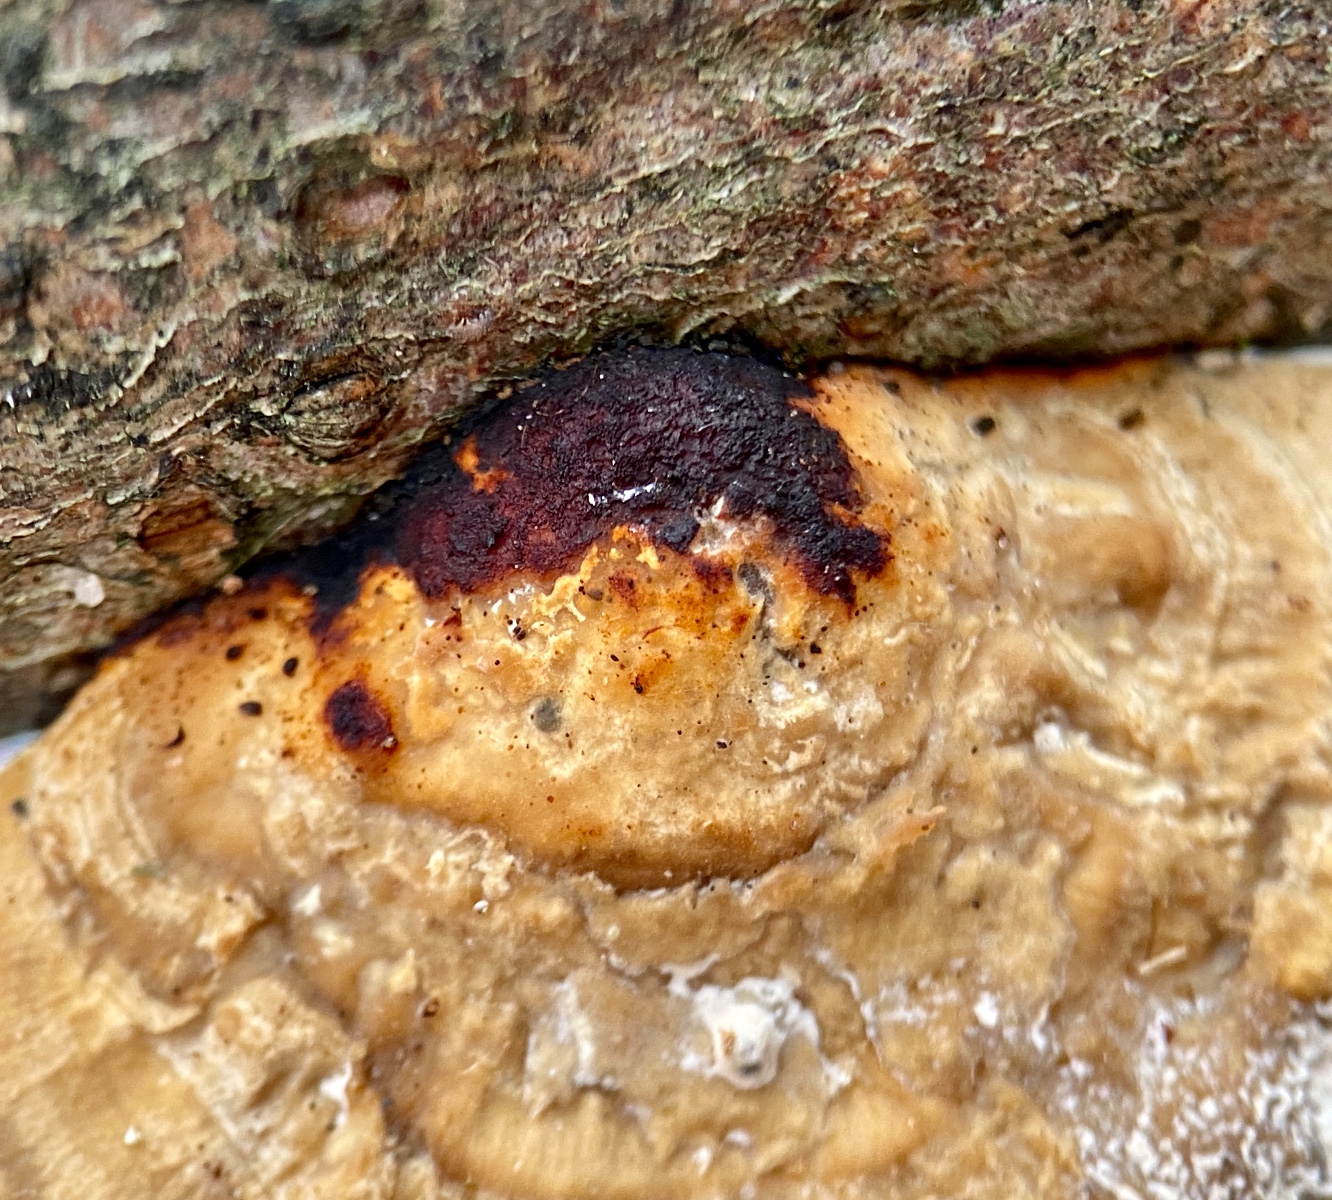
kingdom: Fungi
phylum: Basidiomycota
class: Agaricomycetes
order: Polyporales
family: Polyporaceae
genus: Daedaleopsis
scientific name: Daedaleopsis confragosa
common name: rødmende læderporesvamp
